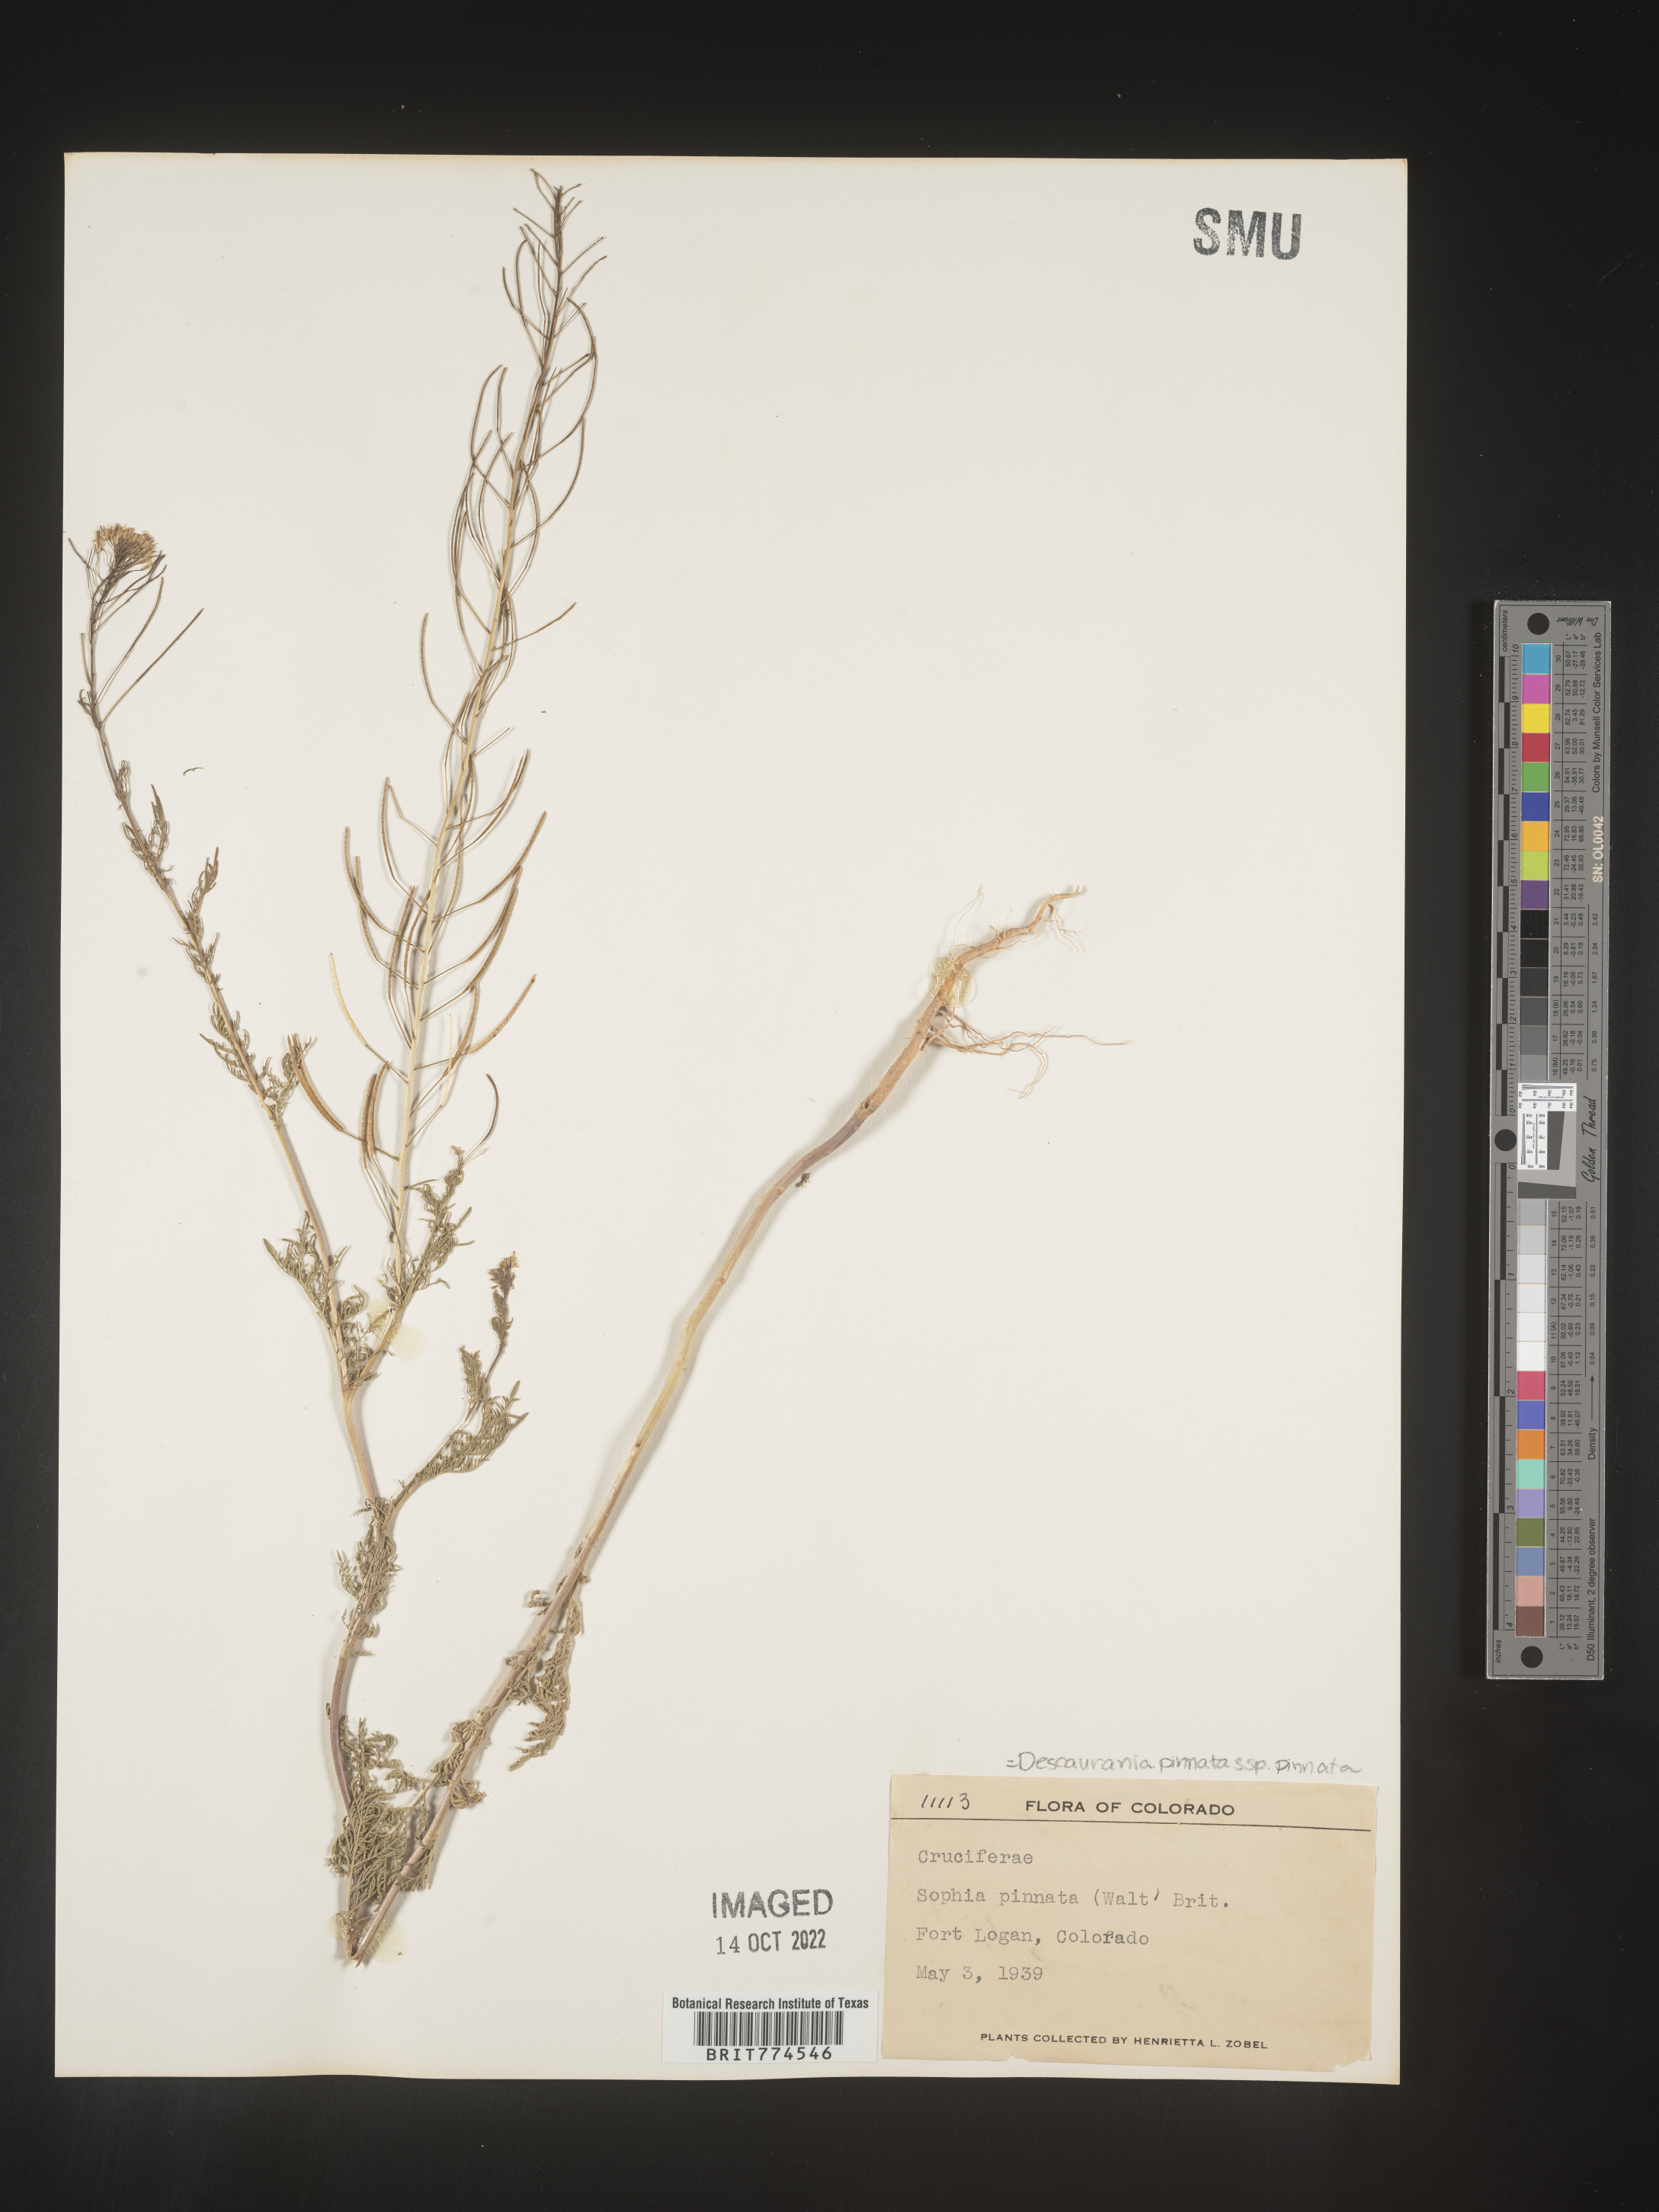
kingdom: Plantae
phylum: Tracheophyta
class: Magnoliopsida
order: Brassicales
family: Brassicaceae
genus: Descurainia
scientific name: Descurainia pinnata
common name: Western tansy mustard
